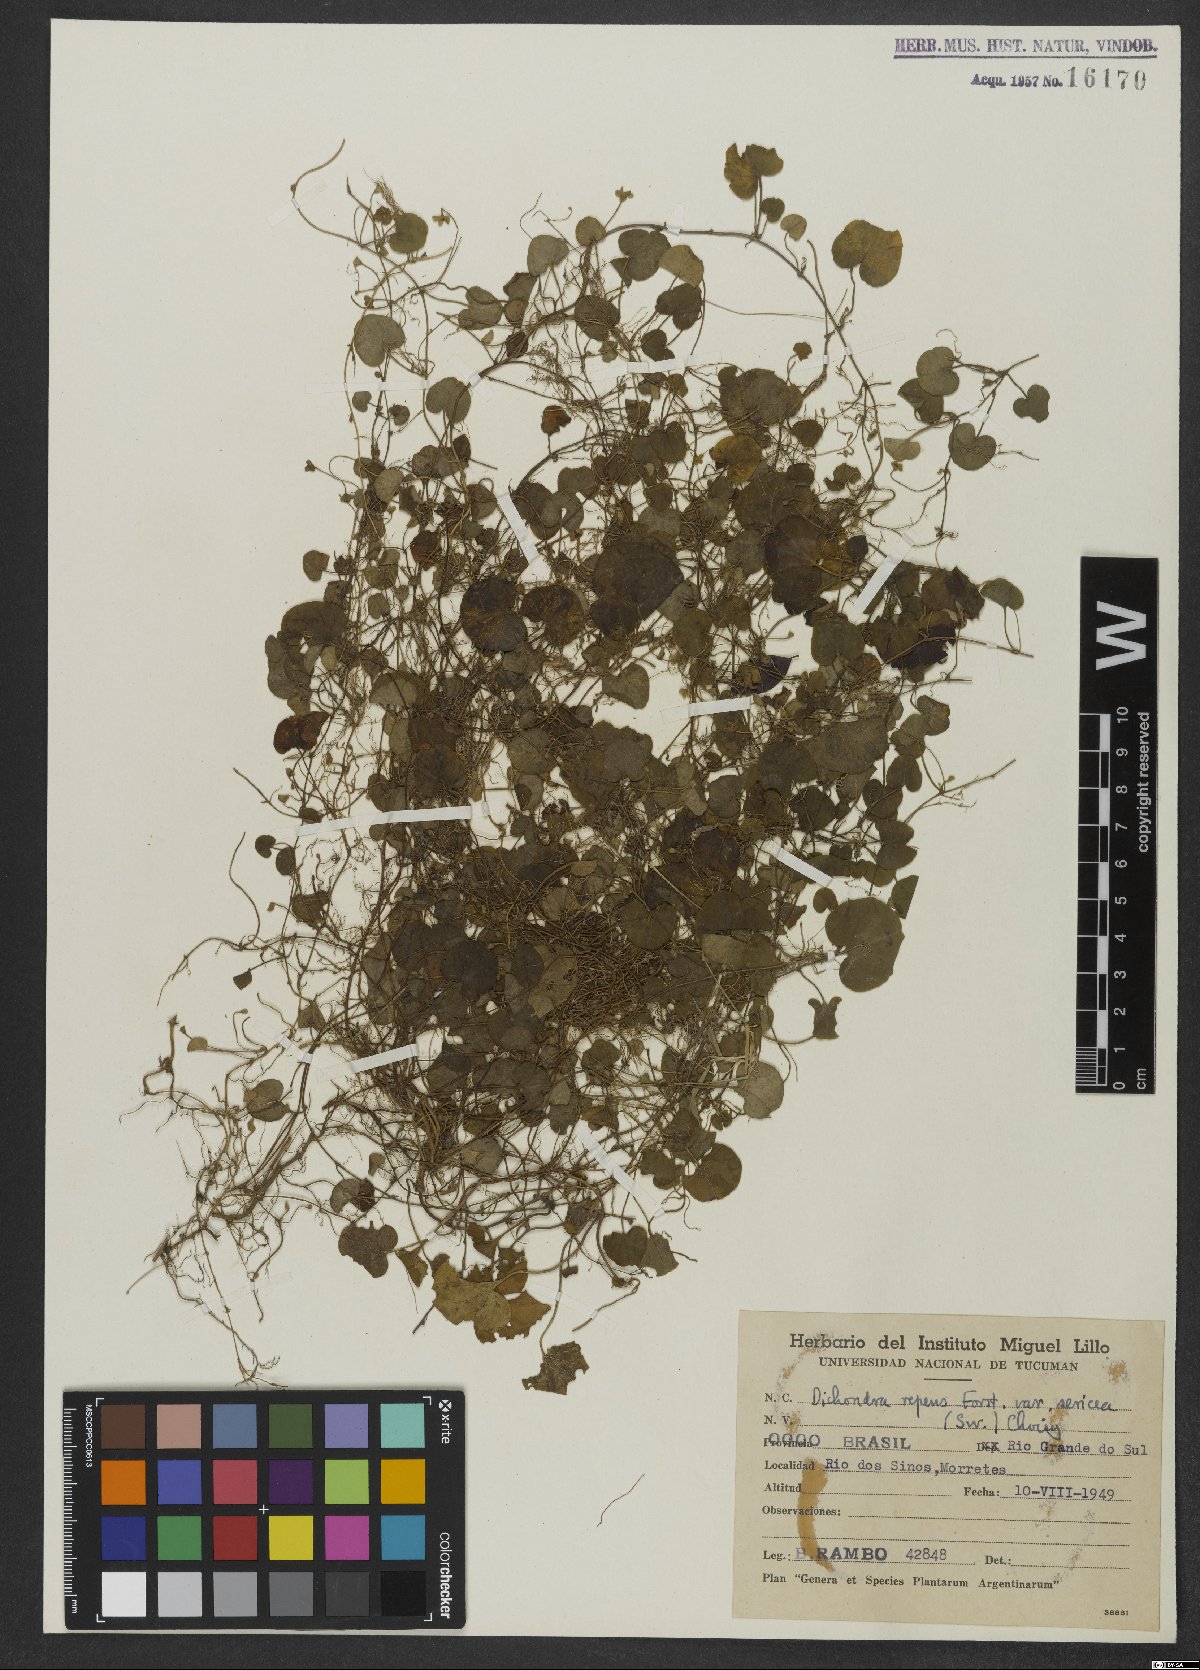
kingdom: Plantae
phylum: Tracheophyta
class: Magnoliopsida
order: Solanales
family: Convolvulaceae
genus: Dichondra
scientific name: Dichondra repens
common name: Kidneyweed
